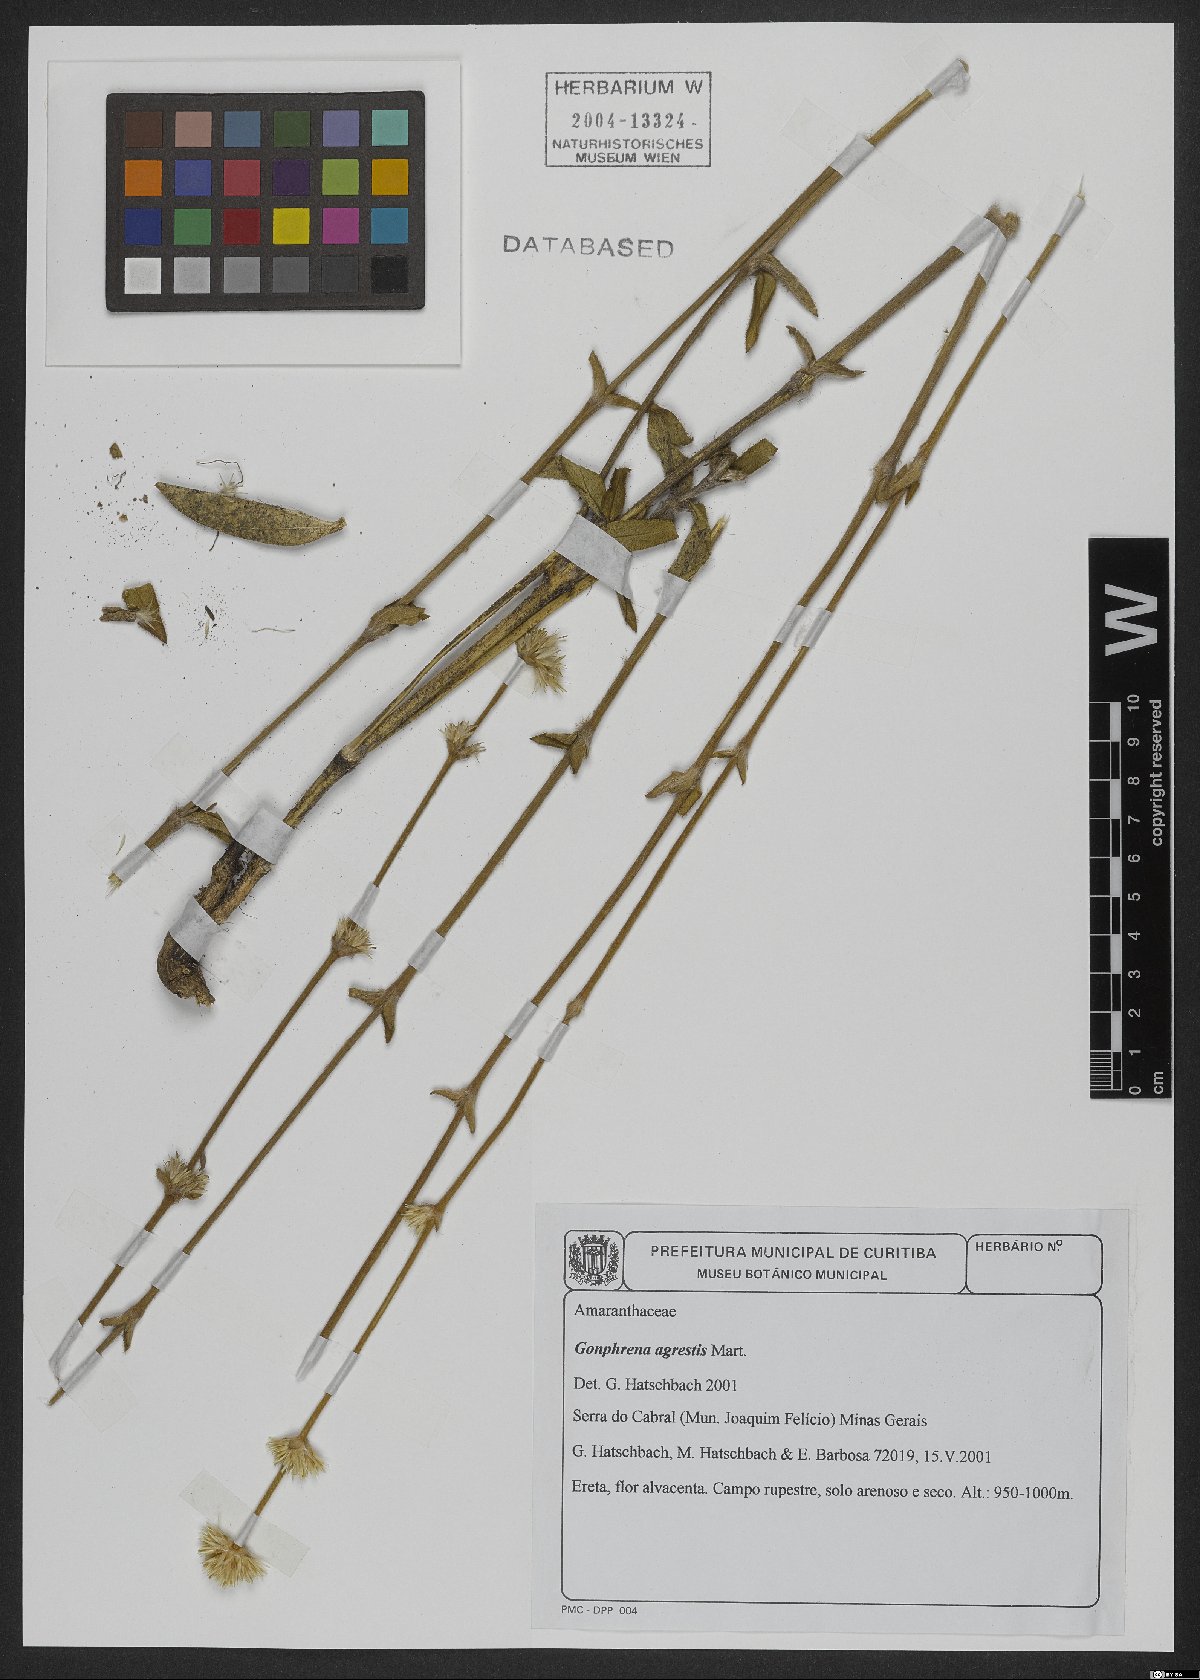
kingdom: Plantae
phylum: Tracheophyta
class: Magnoliopsida
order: Caryophyllales
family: Amaranthaceae
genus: Gomphrena
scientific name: Gomphrena agrestis
